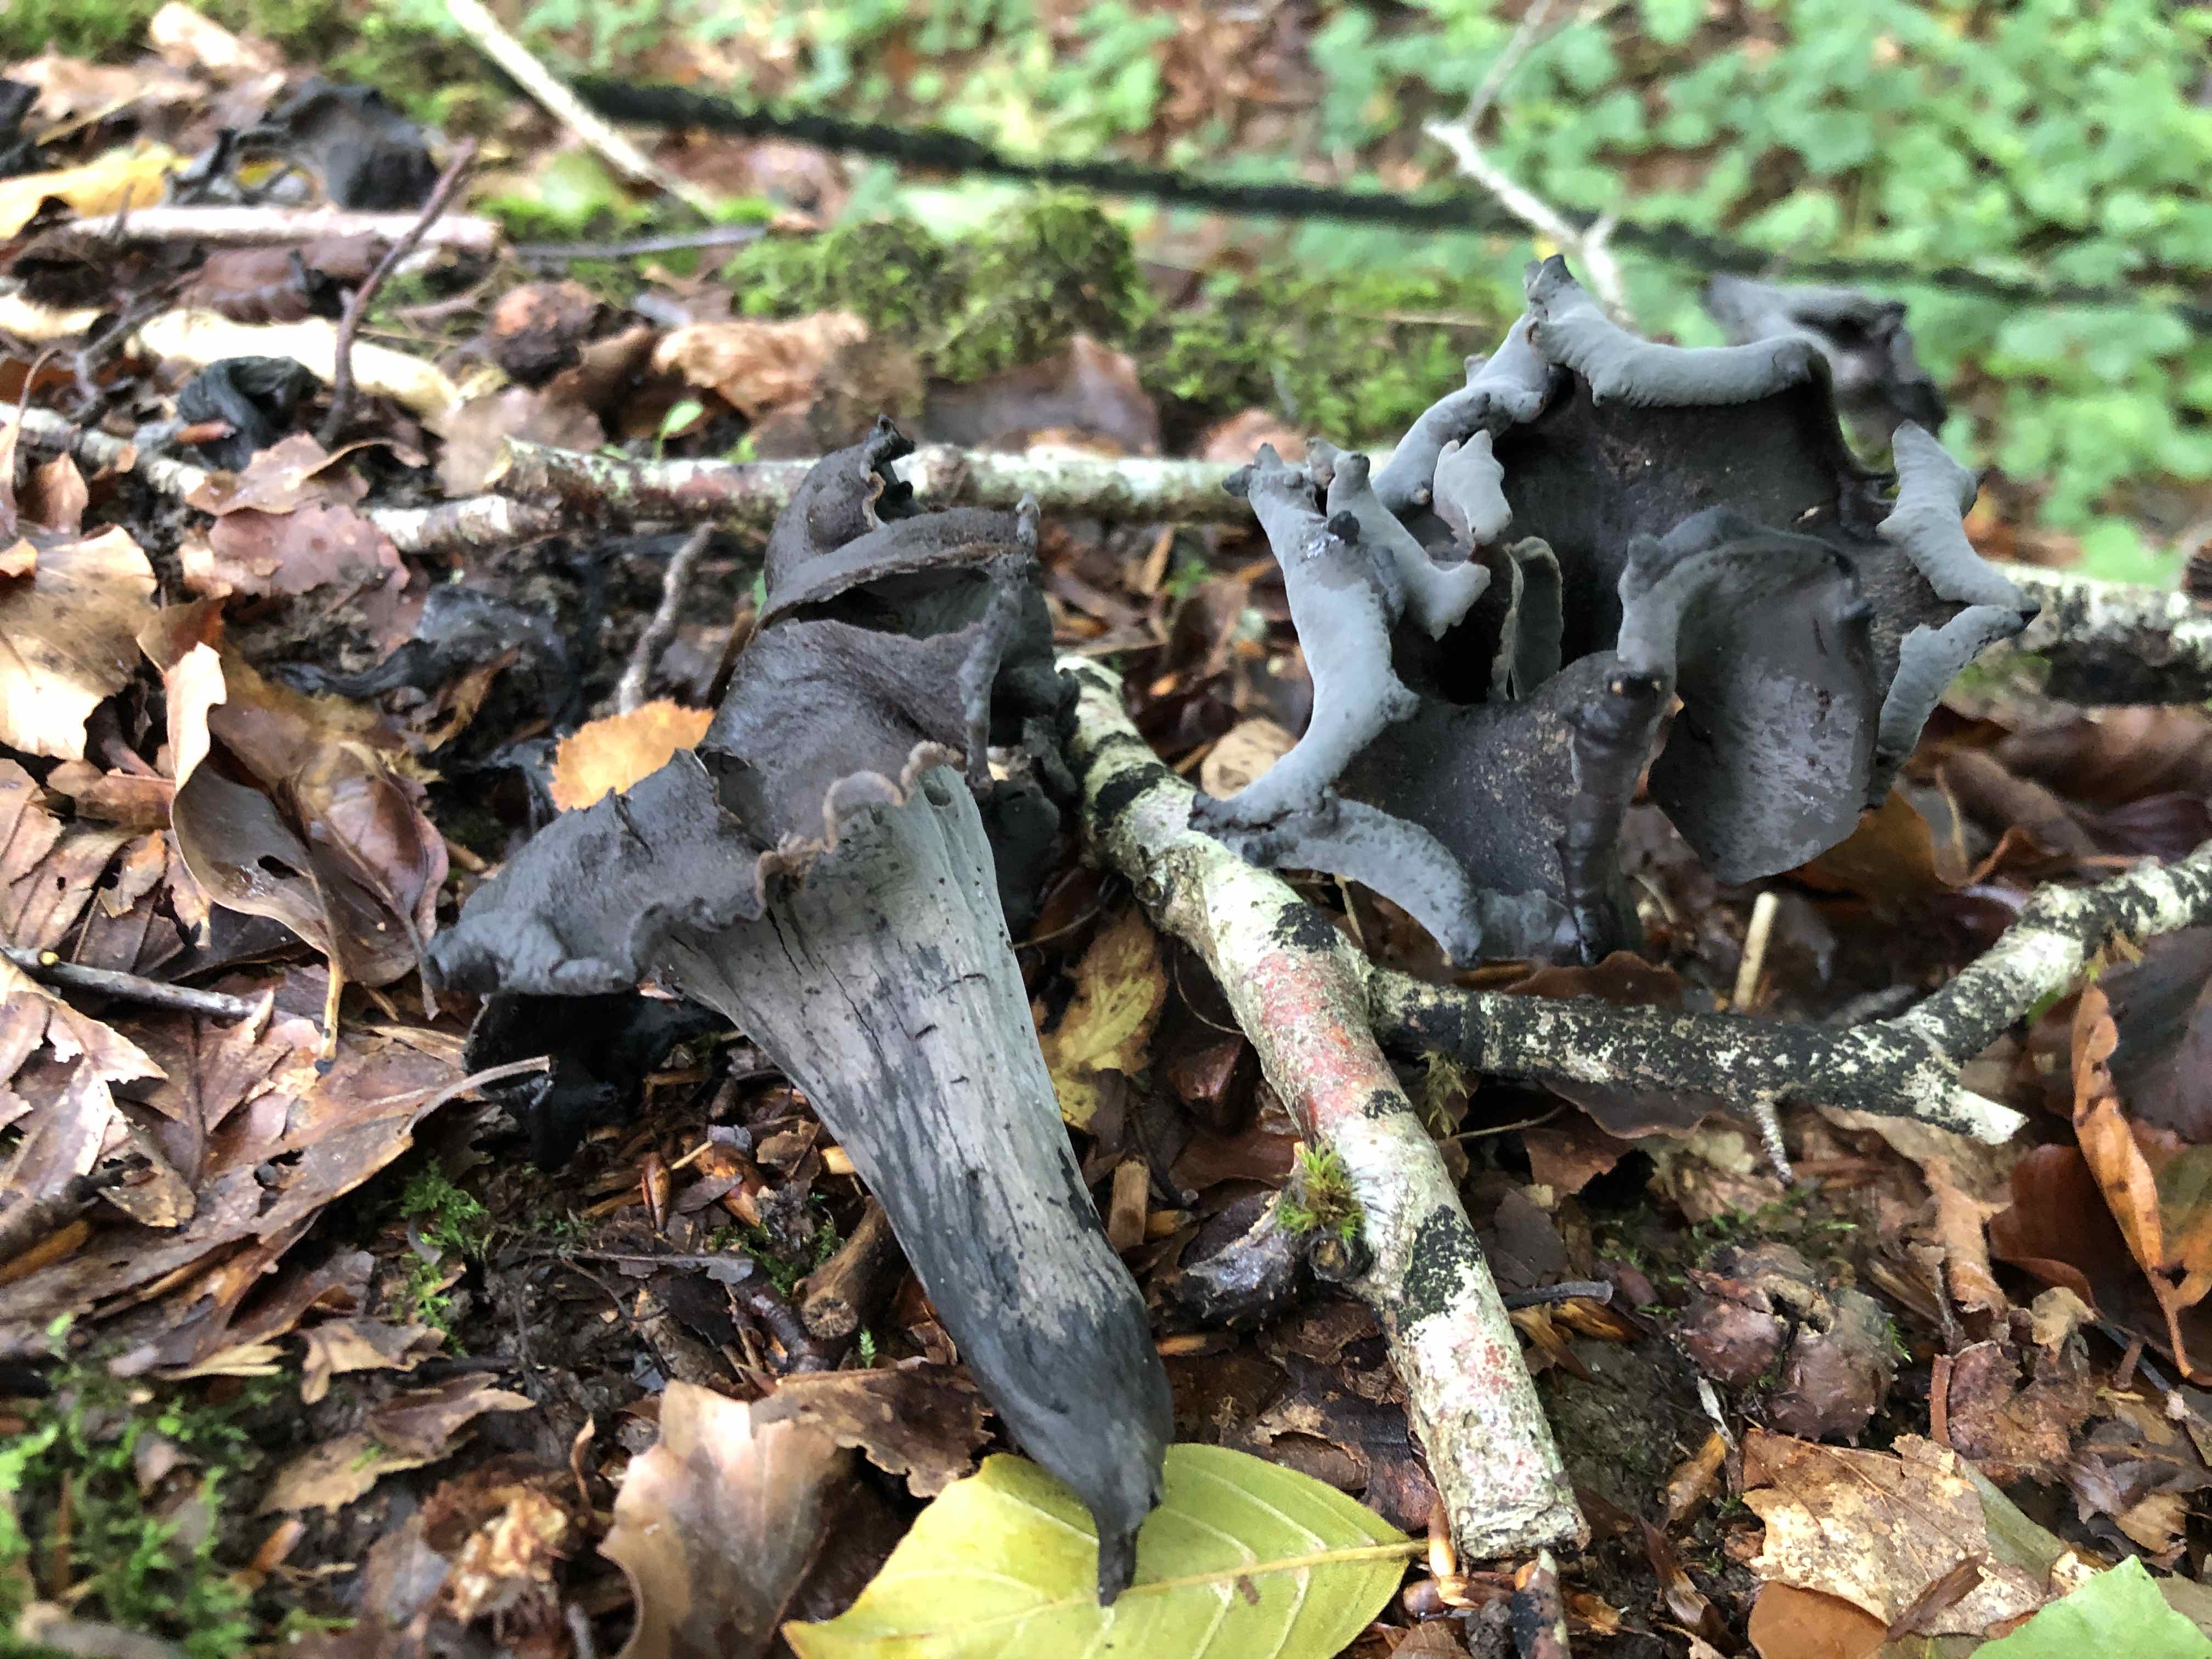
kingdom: Fungi
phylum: Basidiomycota
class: Agaricomycetes
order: Cantharellales
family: Hydnaceae
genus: Craterellus
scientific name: Craterellus cornucopioides
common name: trompetsvamp
